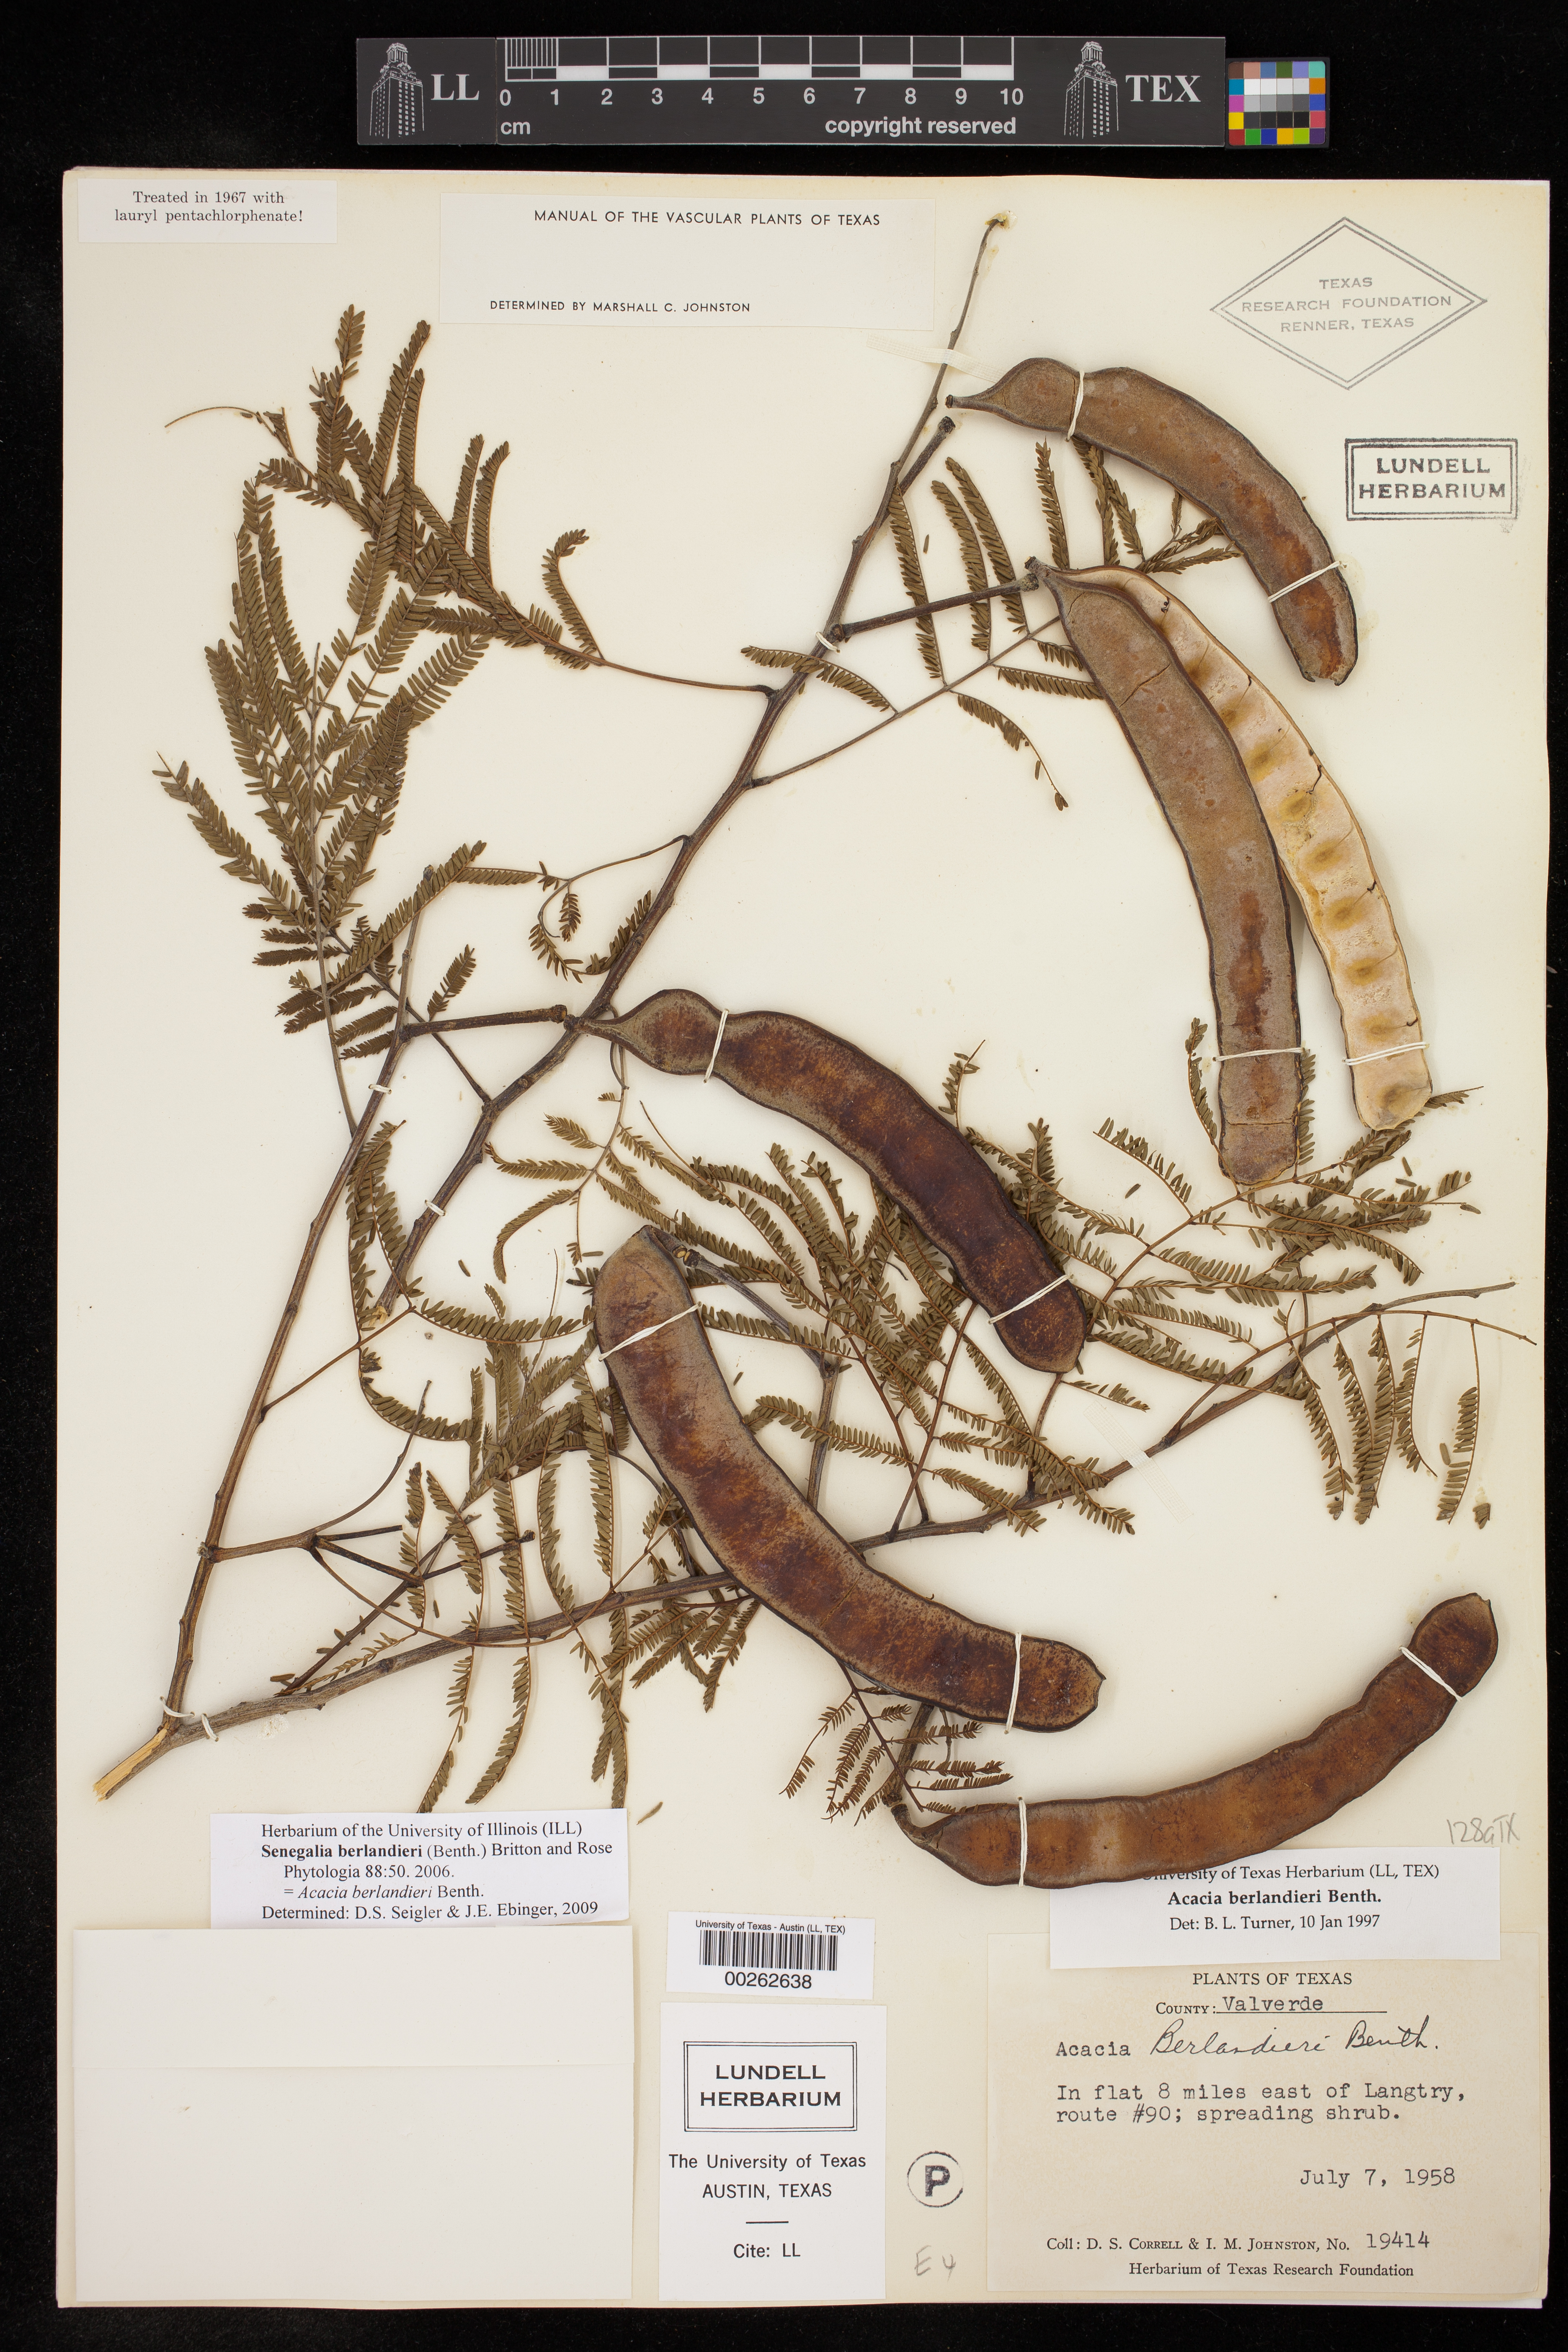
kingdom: Plantae
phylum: Tracheophyta
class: Magnoliopsida
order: Fabales
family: Fabaceae
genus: Senegalia
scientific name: Senegalia berlandieri
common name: Berlandier acacia
